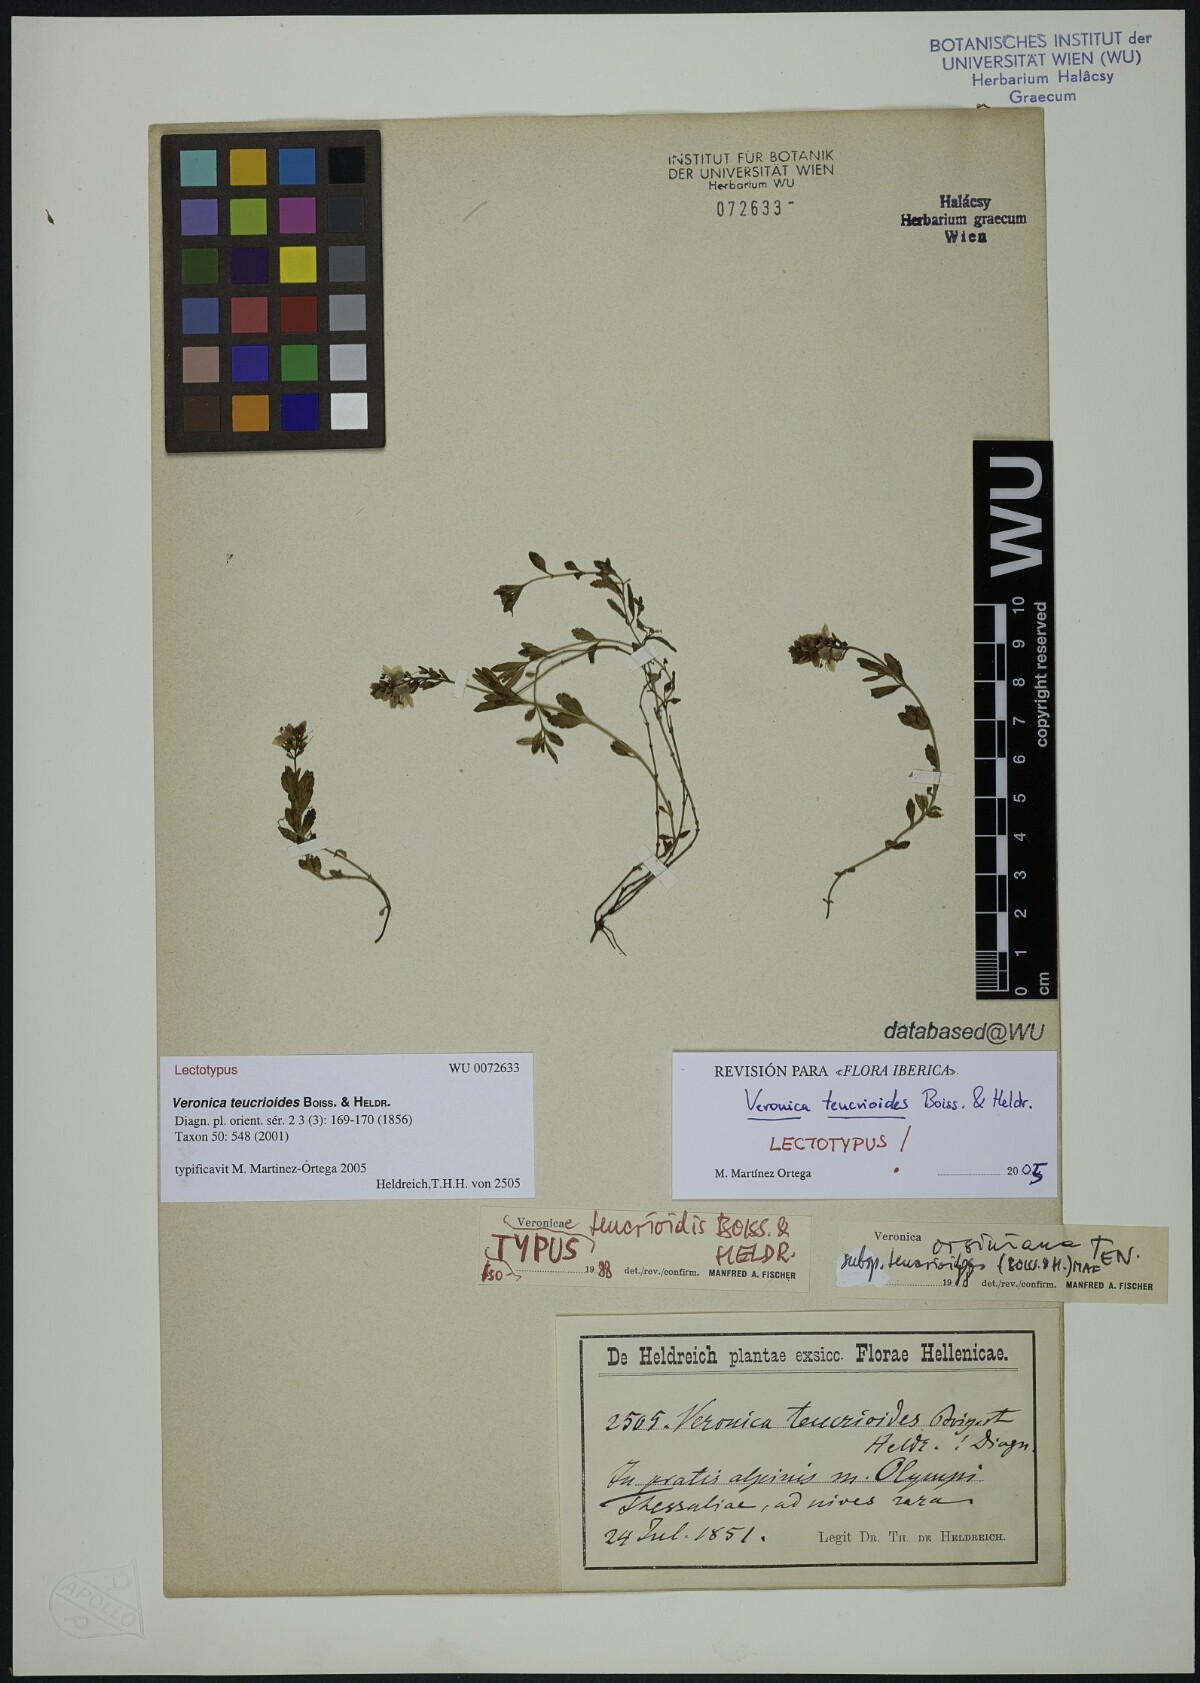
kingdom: Plantae
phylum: Tracheophyta
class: Magnoliopsida
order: Lamiales
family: Plantaginaceae
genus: Veronica
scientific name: Veronica teucrioides
